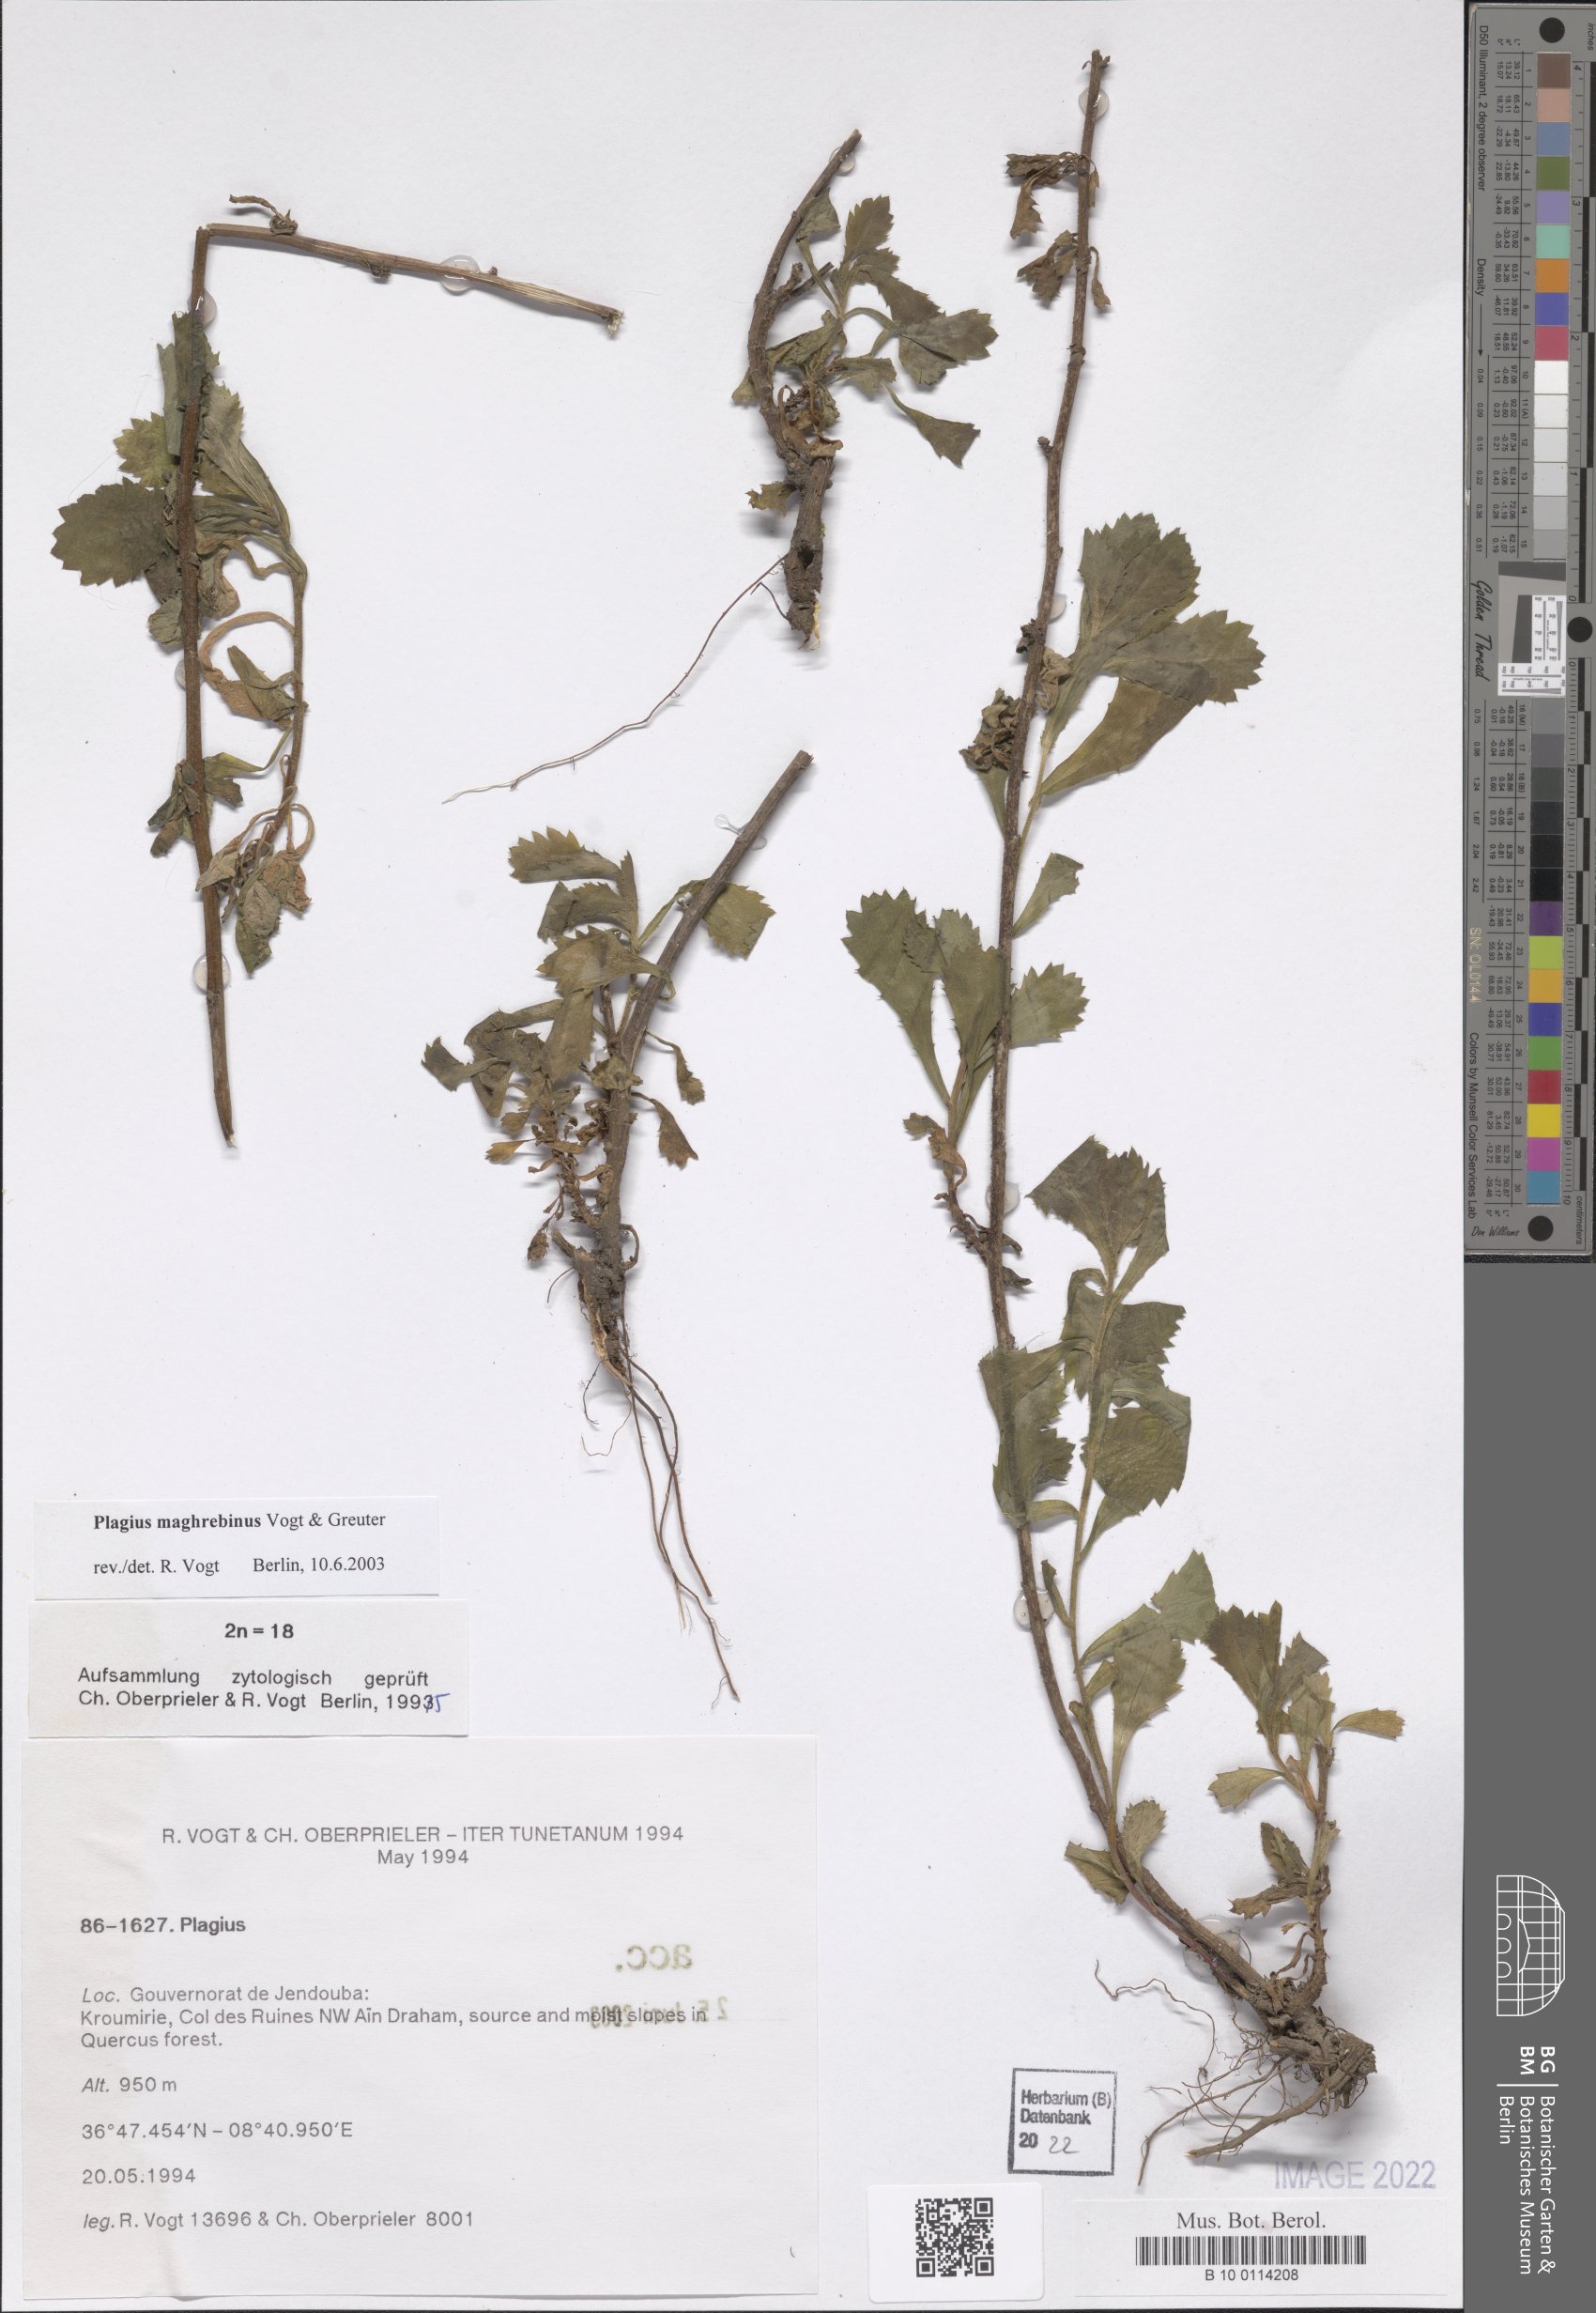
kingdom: Plantae
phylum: Tracheophyta
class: Magnoliopsida
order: Asterales
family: Asteraceae
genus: Plagius
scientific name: Plagius maghrebinus
